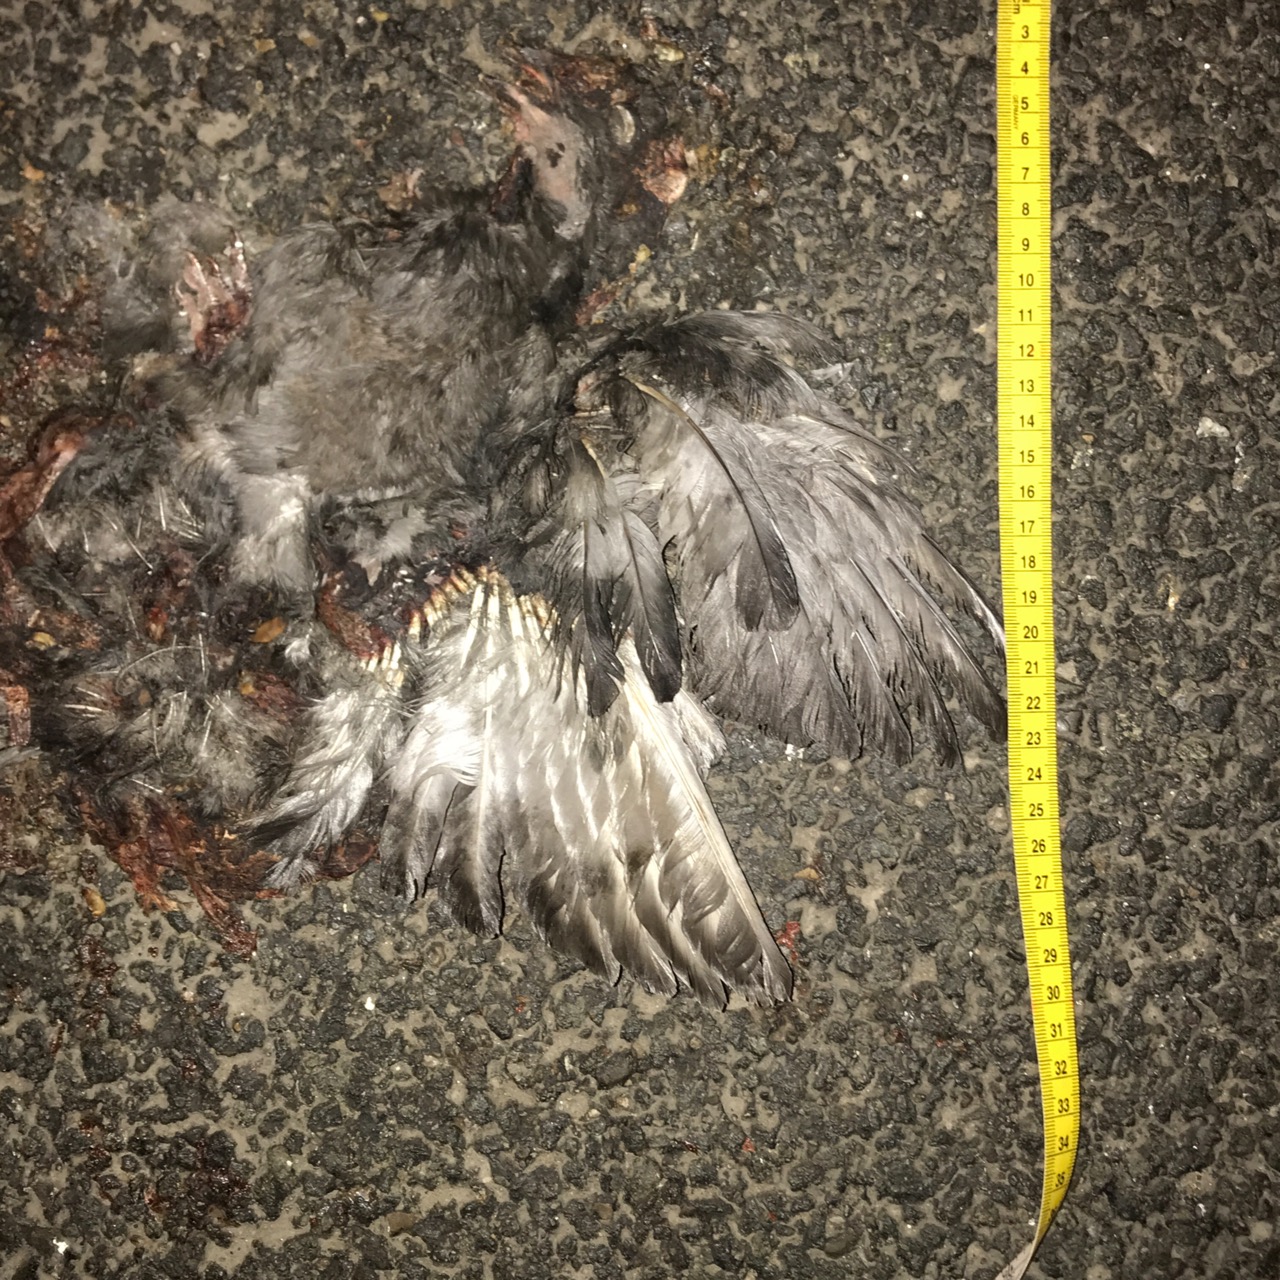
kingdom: Animalia
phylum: Chordata
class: Aves
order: Columbiformes
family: Columbidae
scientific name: Columbidae
